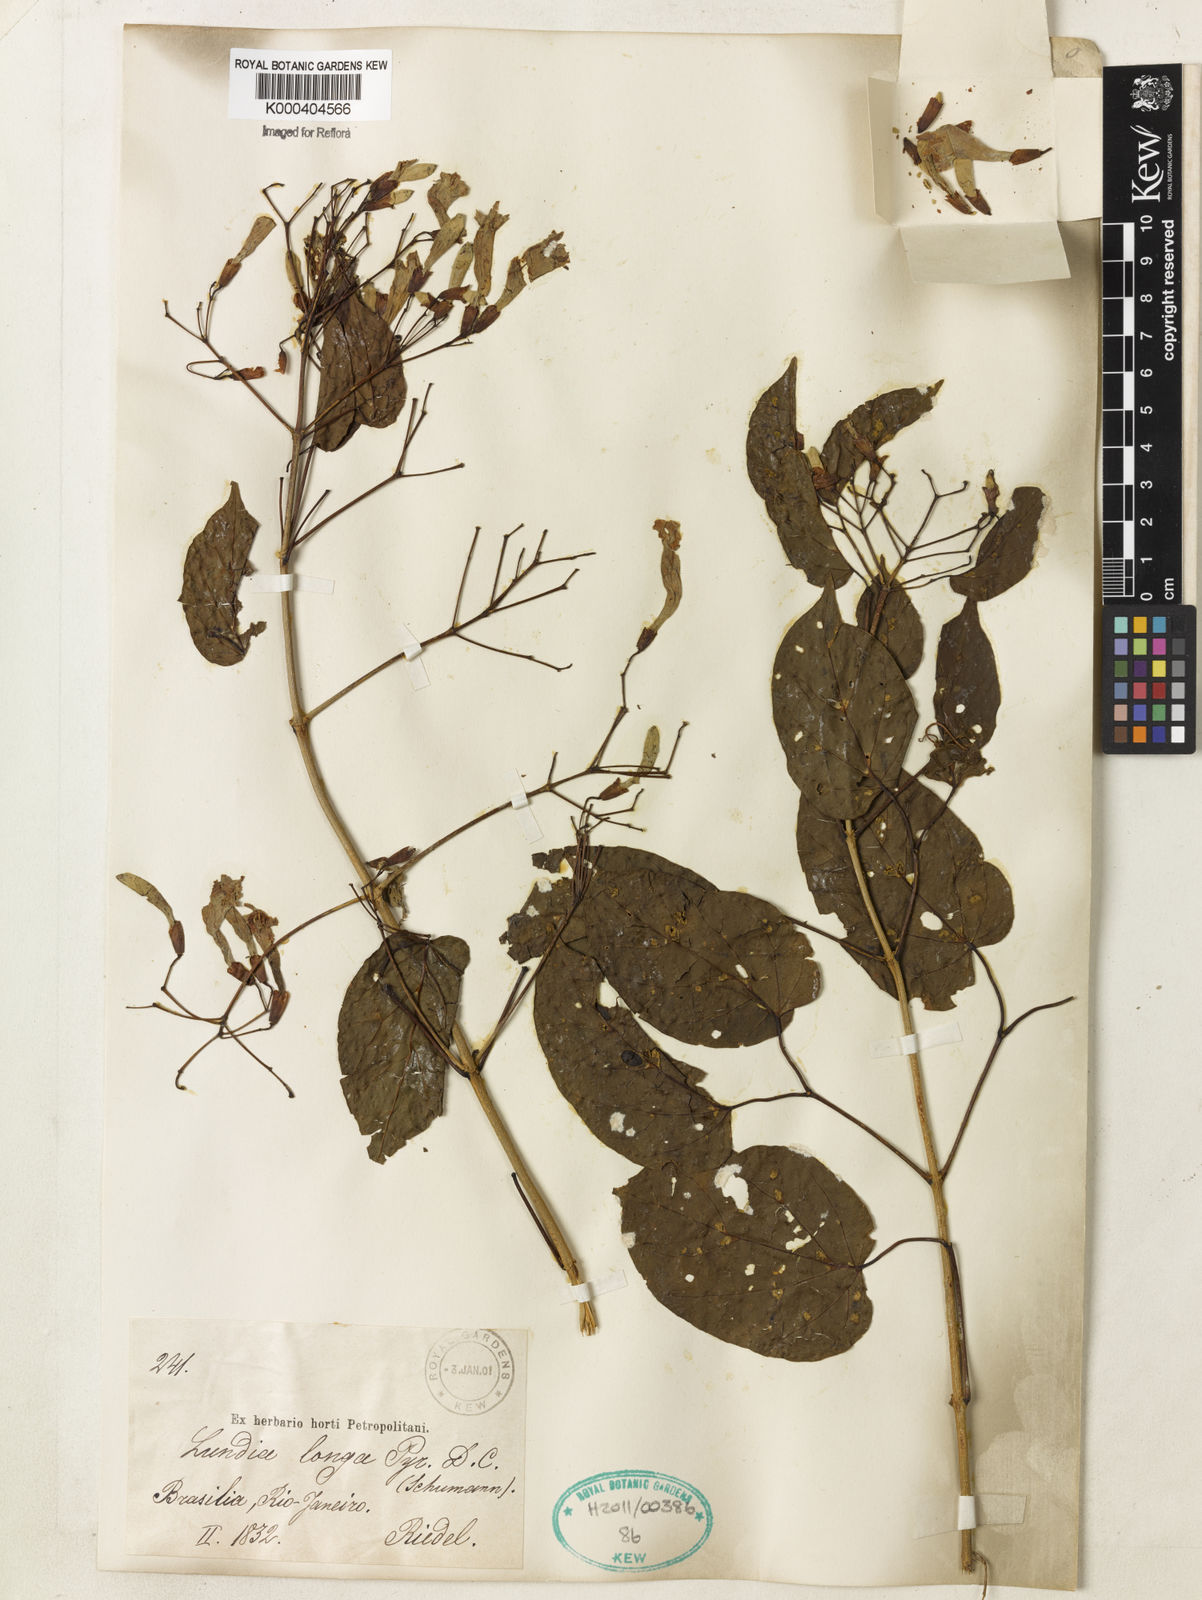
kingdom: Plantae
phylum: Tracheophyta
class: Magnoliopsida
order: Lamiales
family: Bignoniaceae
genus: Lundia
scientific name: Lundia longa
